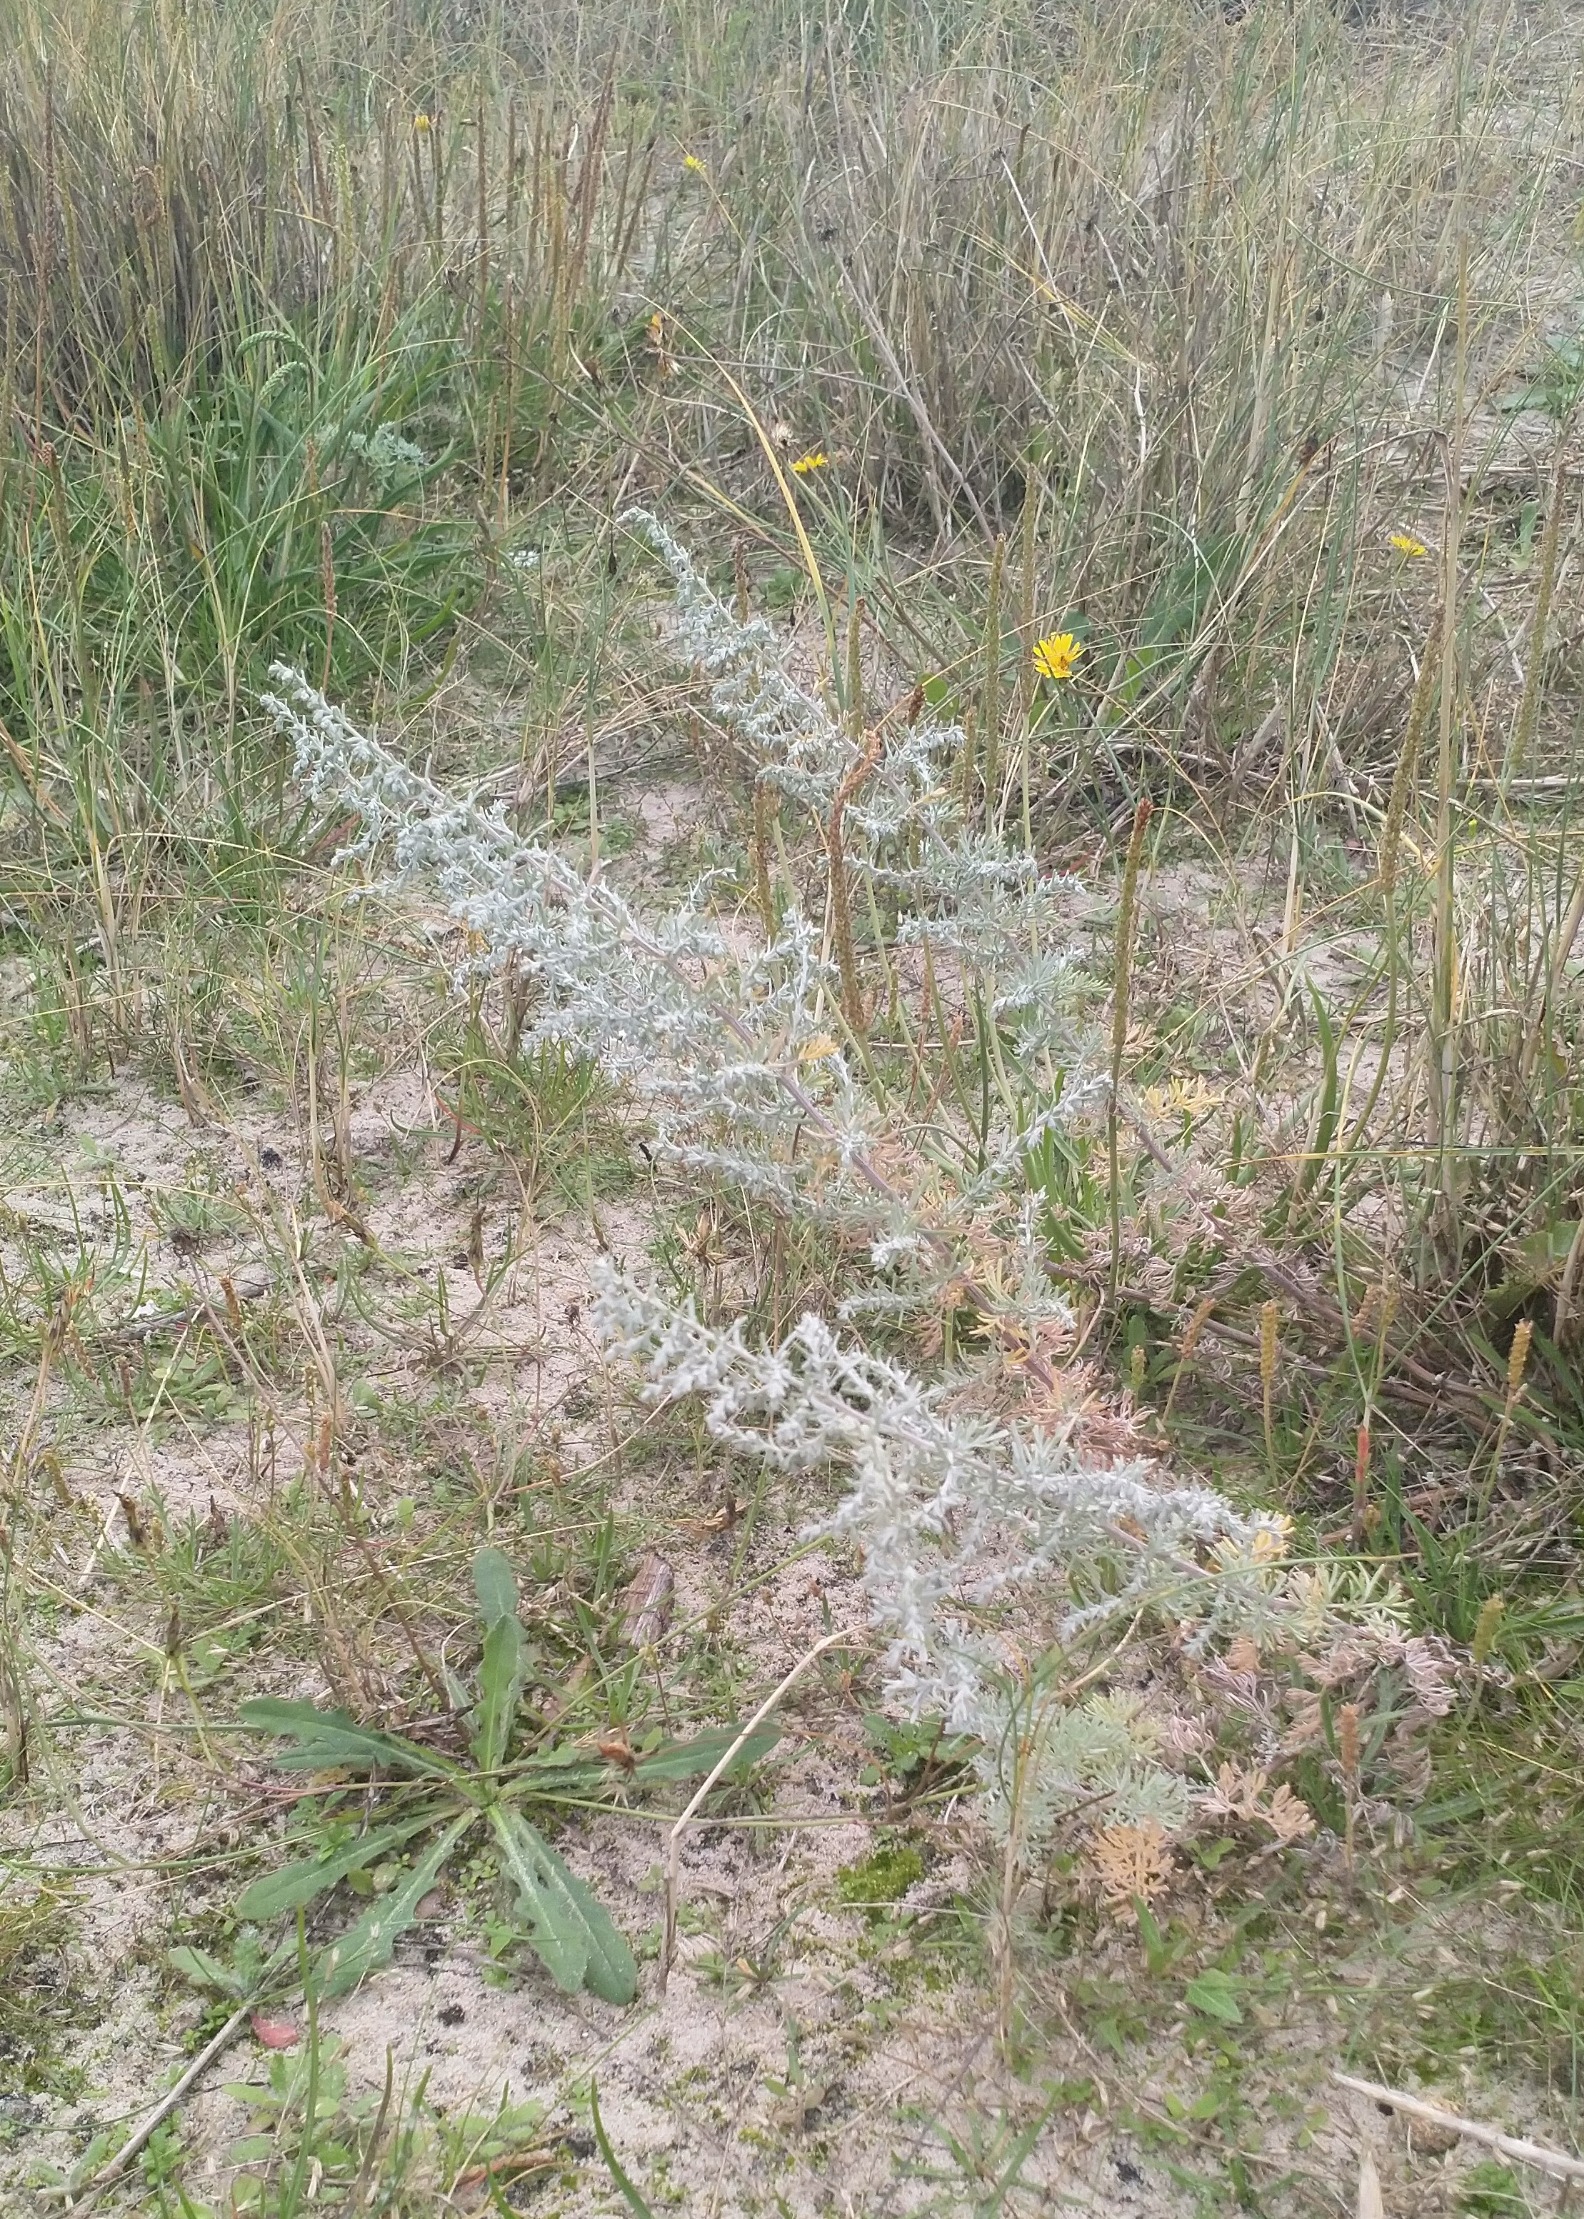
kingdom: Plantae
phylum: Tracheophyta
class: Magnoliopsida
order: Asterales
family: Asteraceae
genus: Artemisia
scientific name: Artemisia maritima
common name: Strandmalurt
